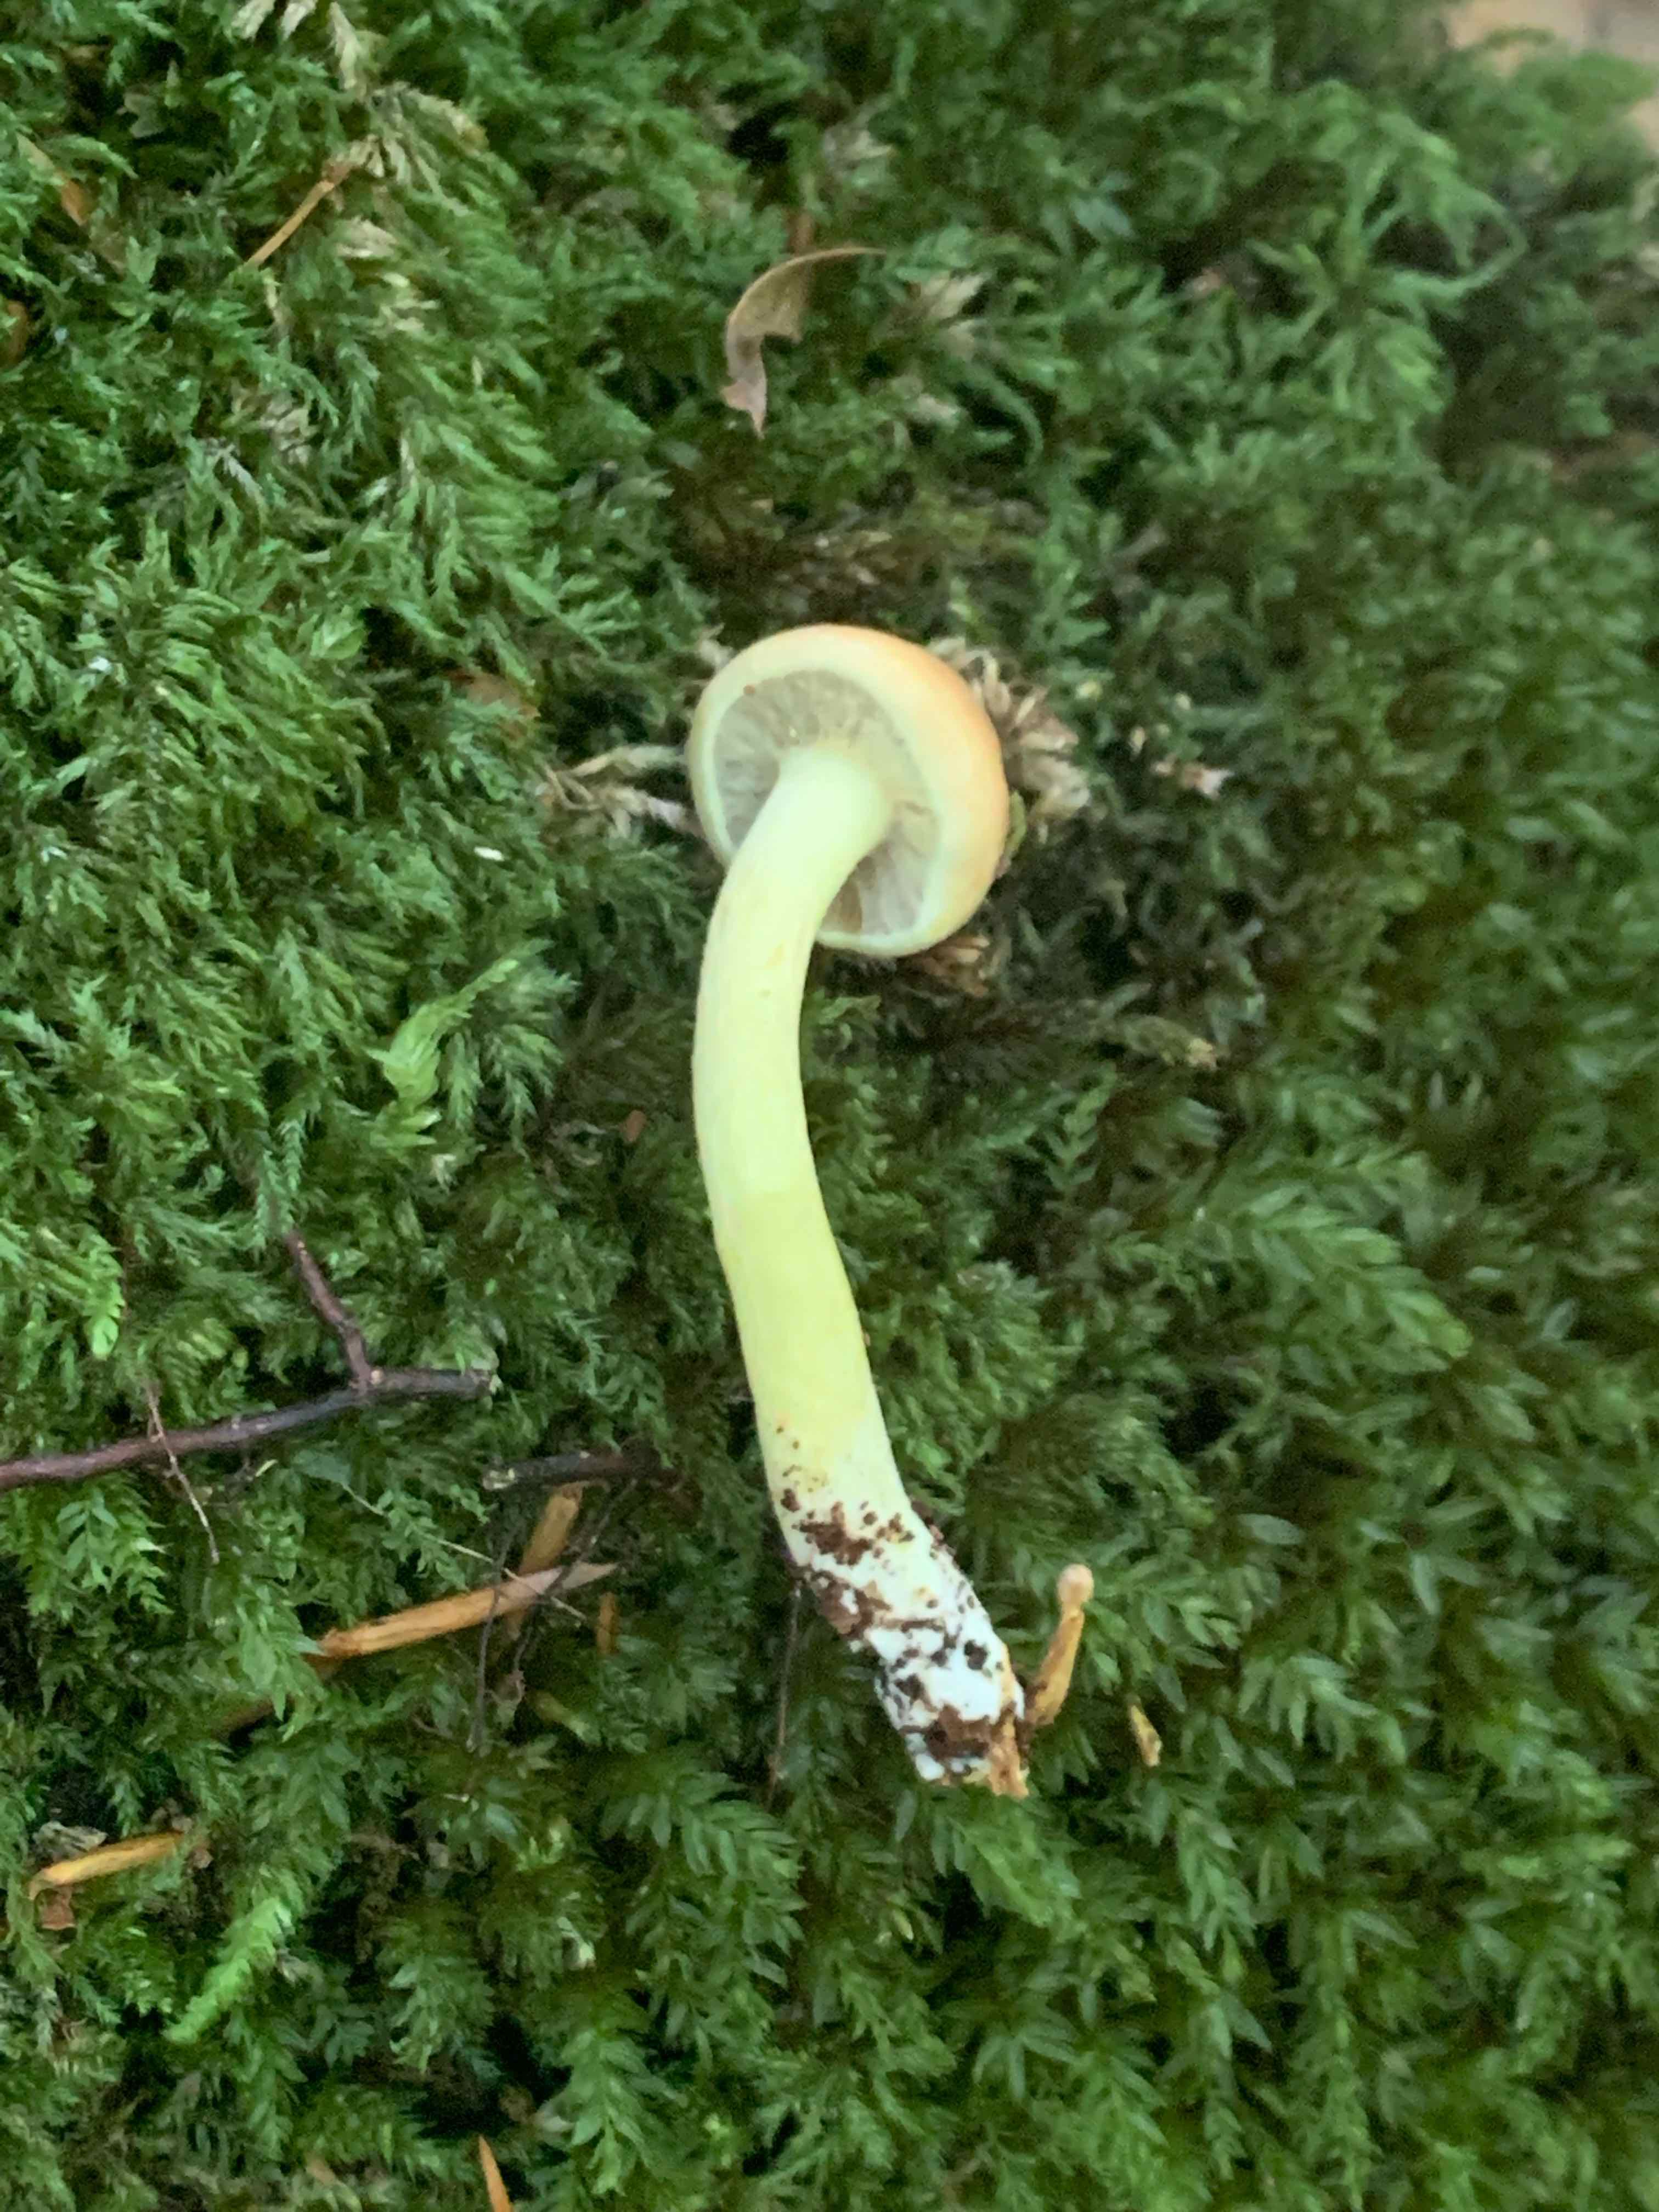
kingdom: Fungi
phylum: Basidiomycota
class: Agaricomycetes
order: Agaricales
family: Strophariaceae
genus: Hypholoma
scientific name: Hypholoma fasciculare
